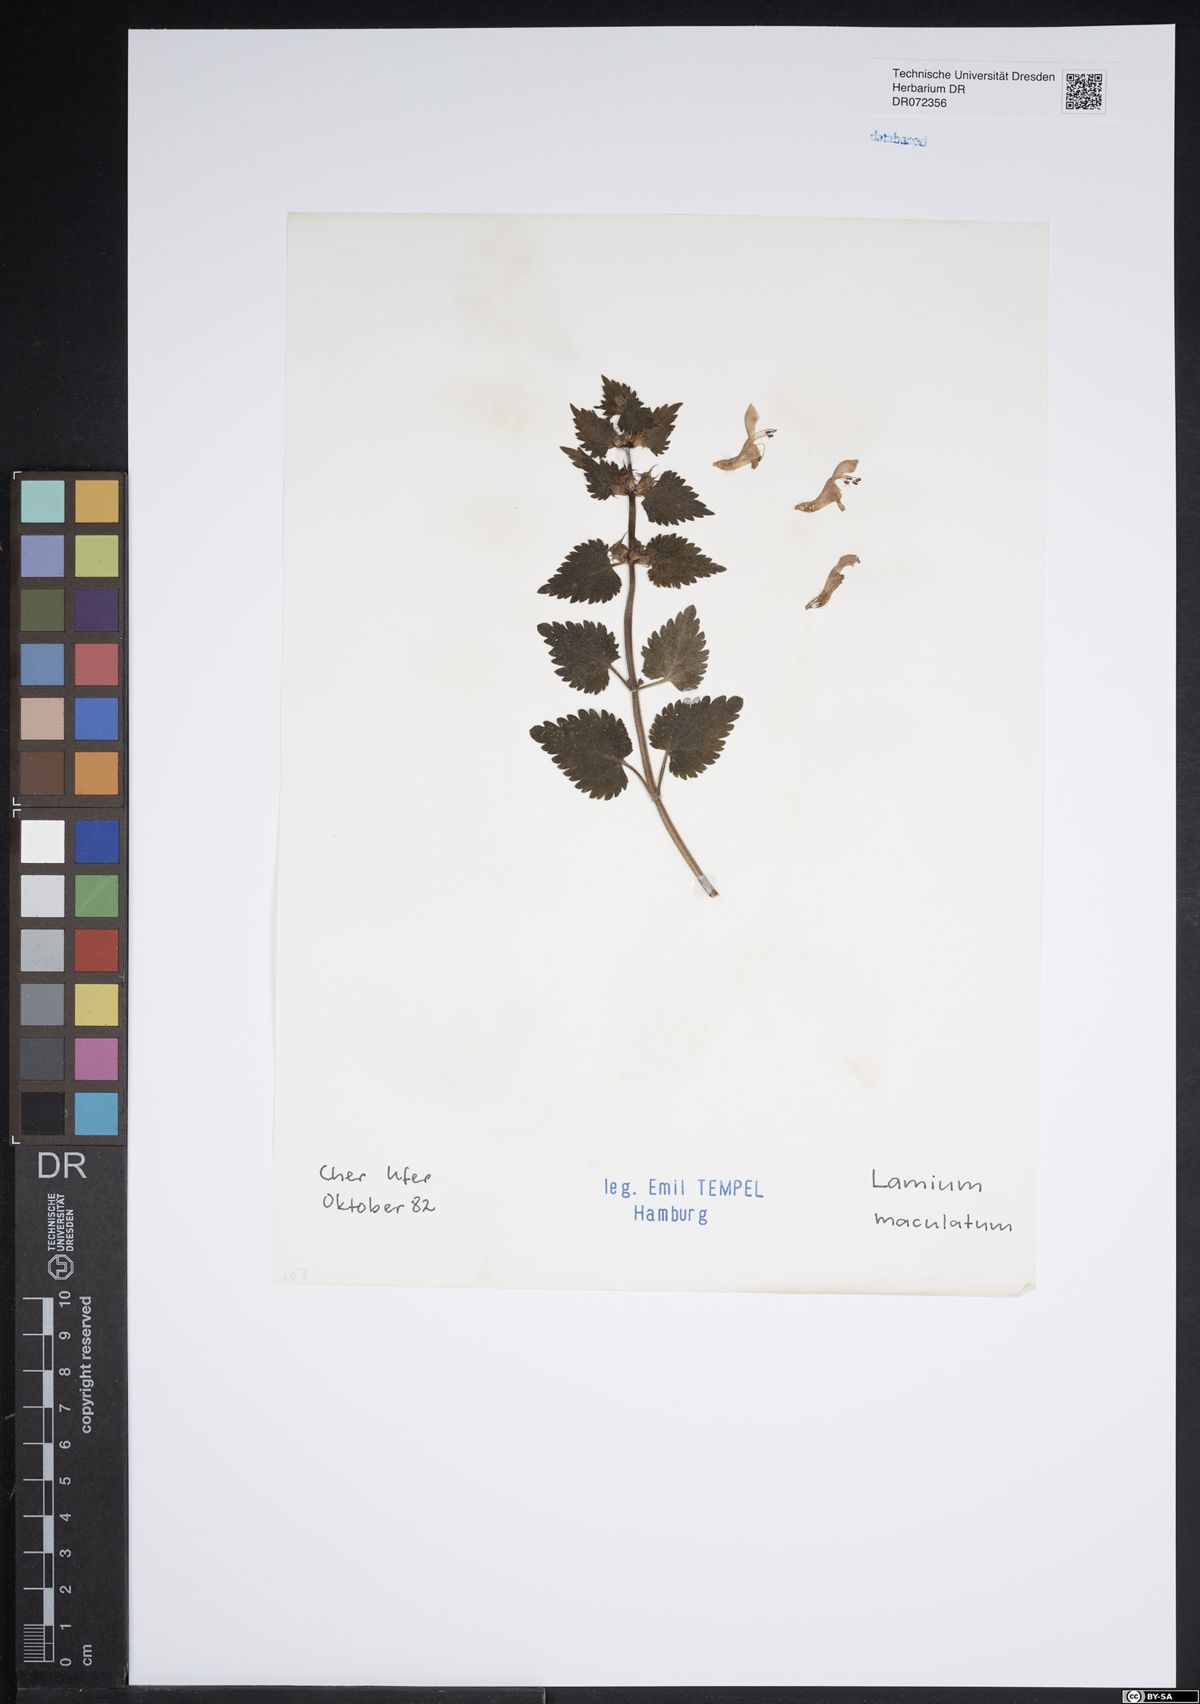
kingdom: Plantae
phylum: Tracheophyta
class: Magnoliopsida
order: Lamiales
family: Lamiaceae
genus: Lamium
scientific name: Lamium maculatum
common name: Spotted dead-nettle
